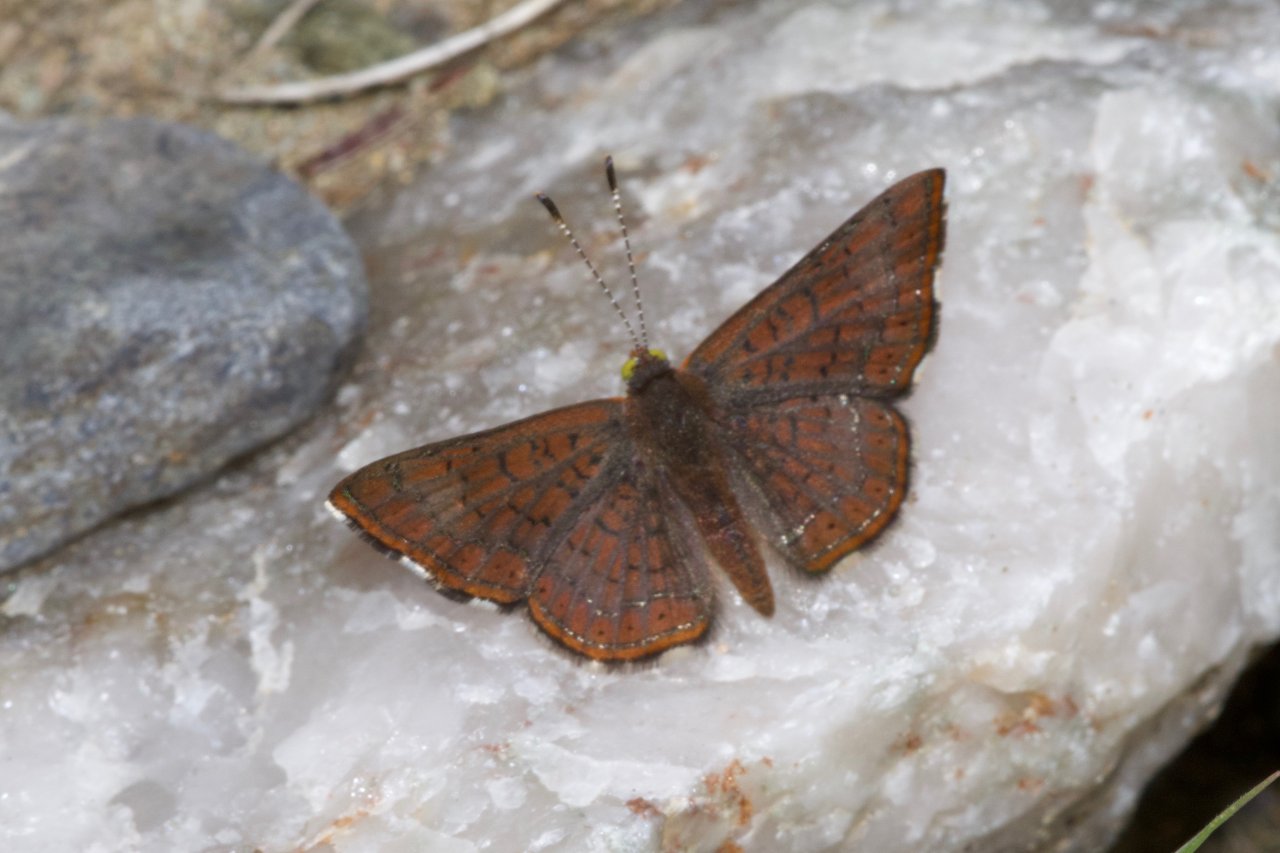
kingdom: Animalia
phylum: Arthropoda
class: Insecta
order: Lepidoptera
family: Lycaenidae
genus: Emesis
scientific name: Emesis wrighti
